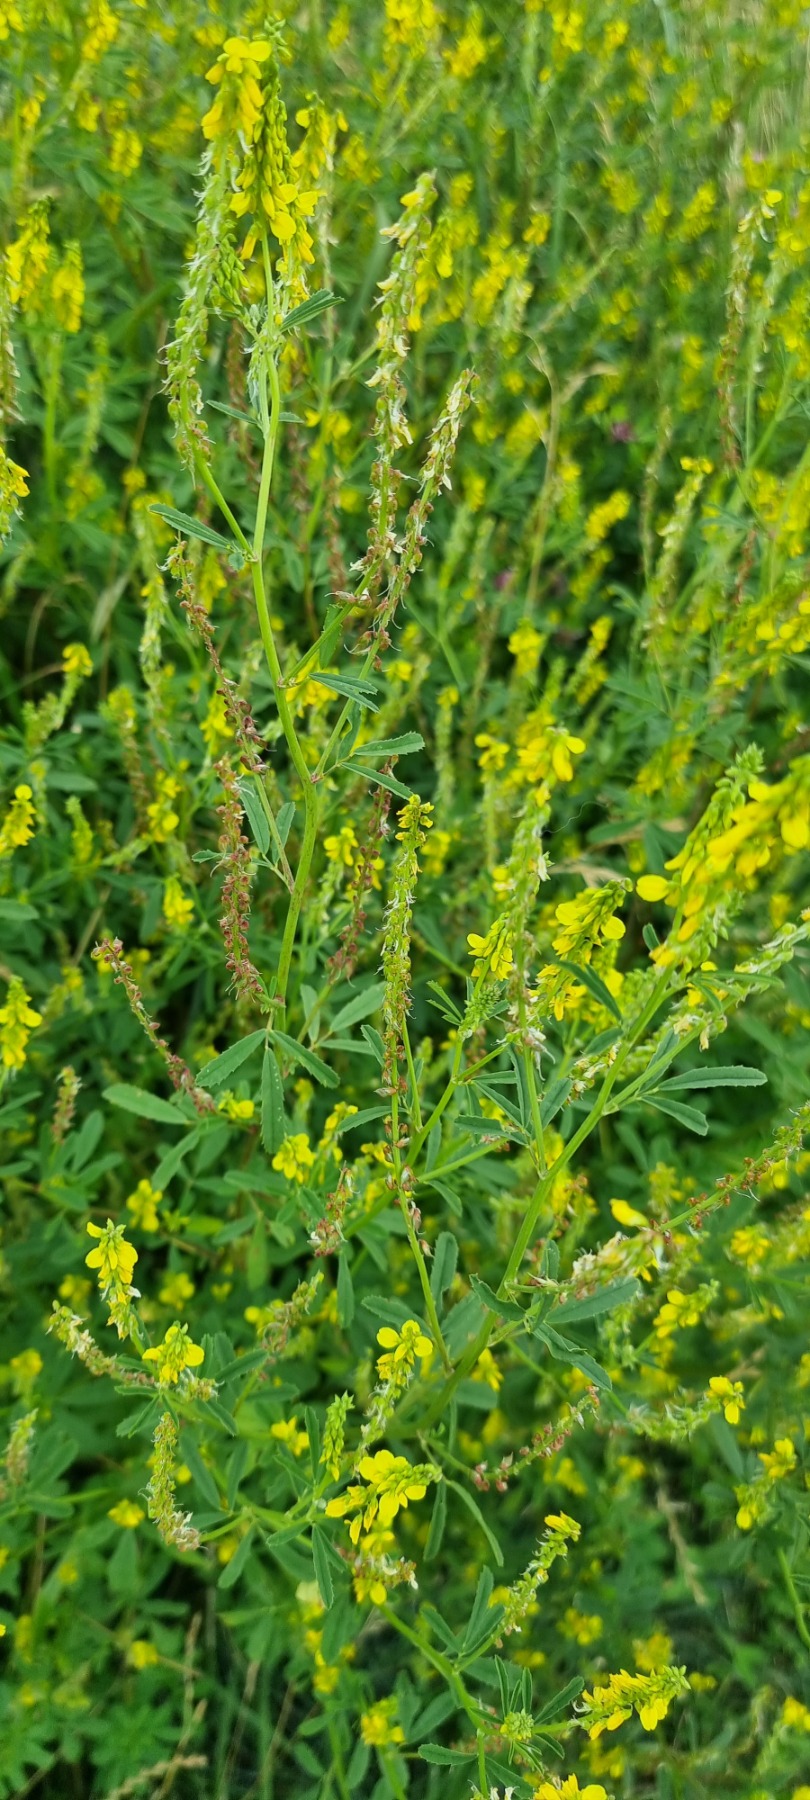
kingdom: Plantae
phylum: Tracheophyta
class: Magnoliopsida
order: Fabales
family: Fabaceae
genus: Melilotus
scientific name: Melilotus officinalis
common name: Mark-stenkløver
